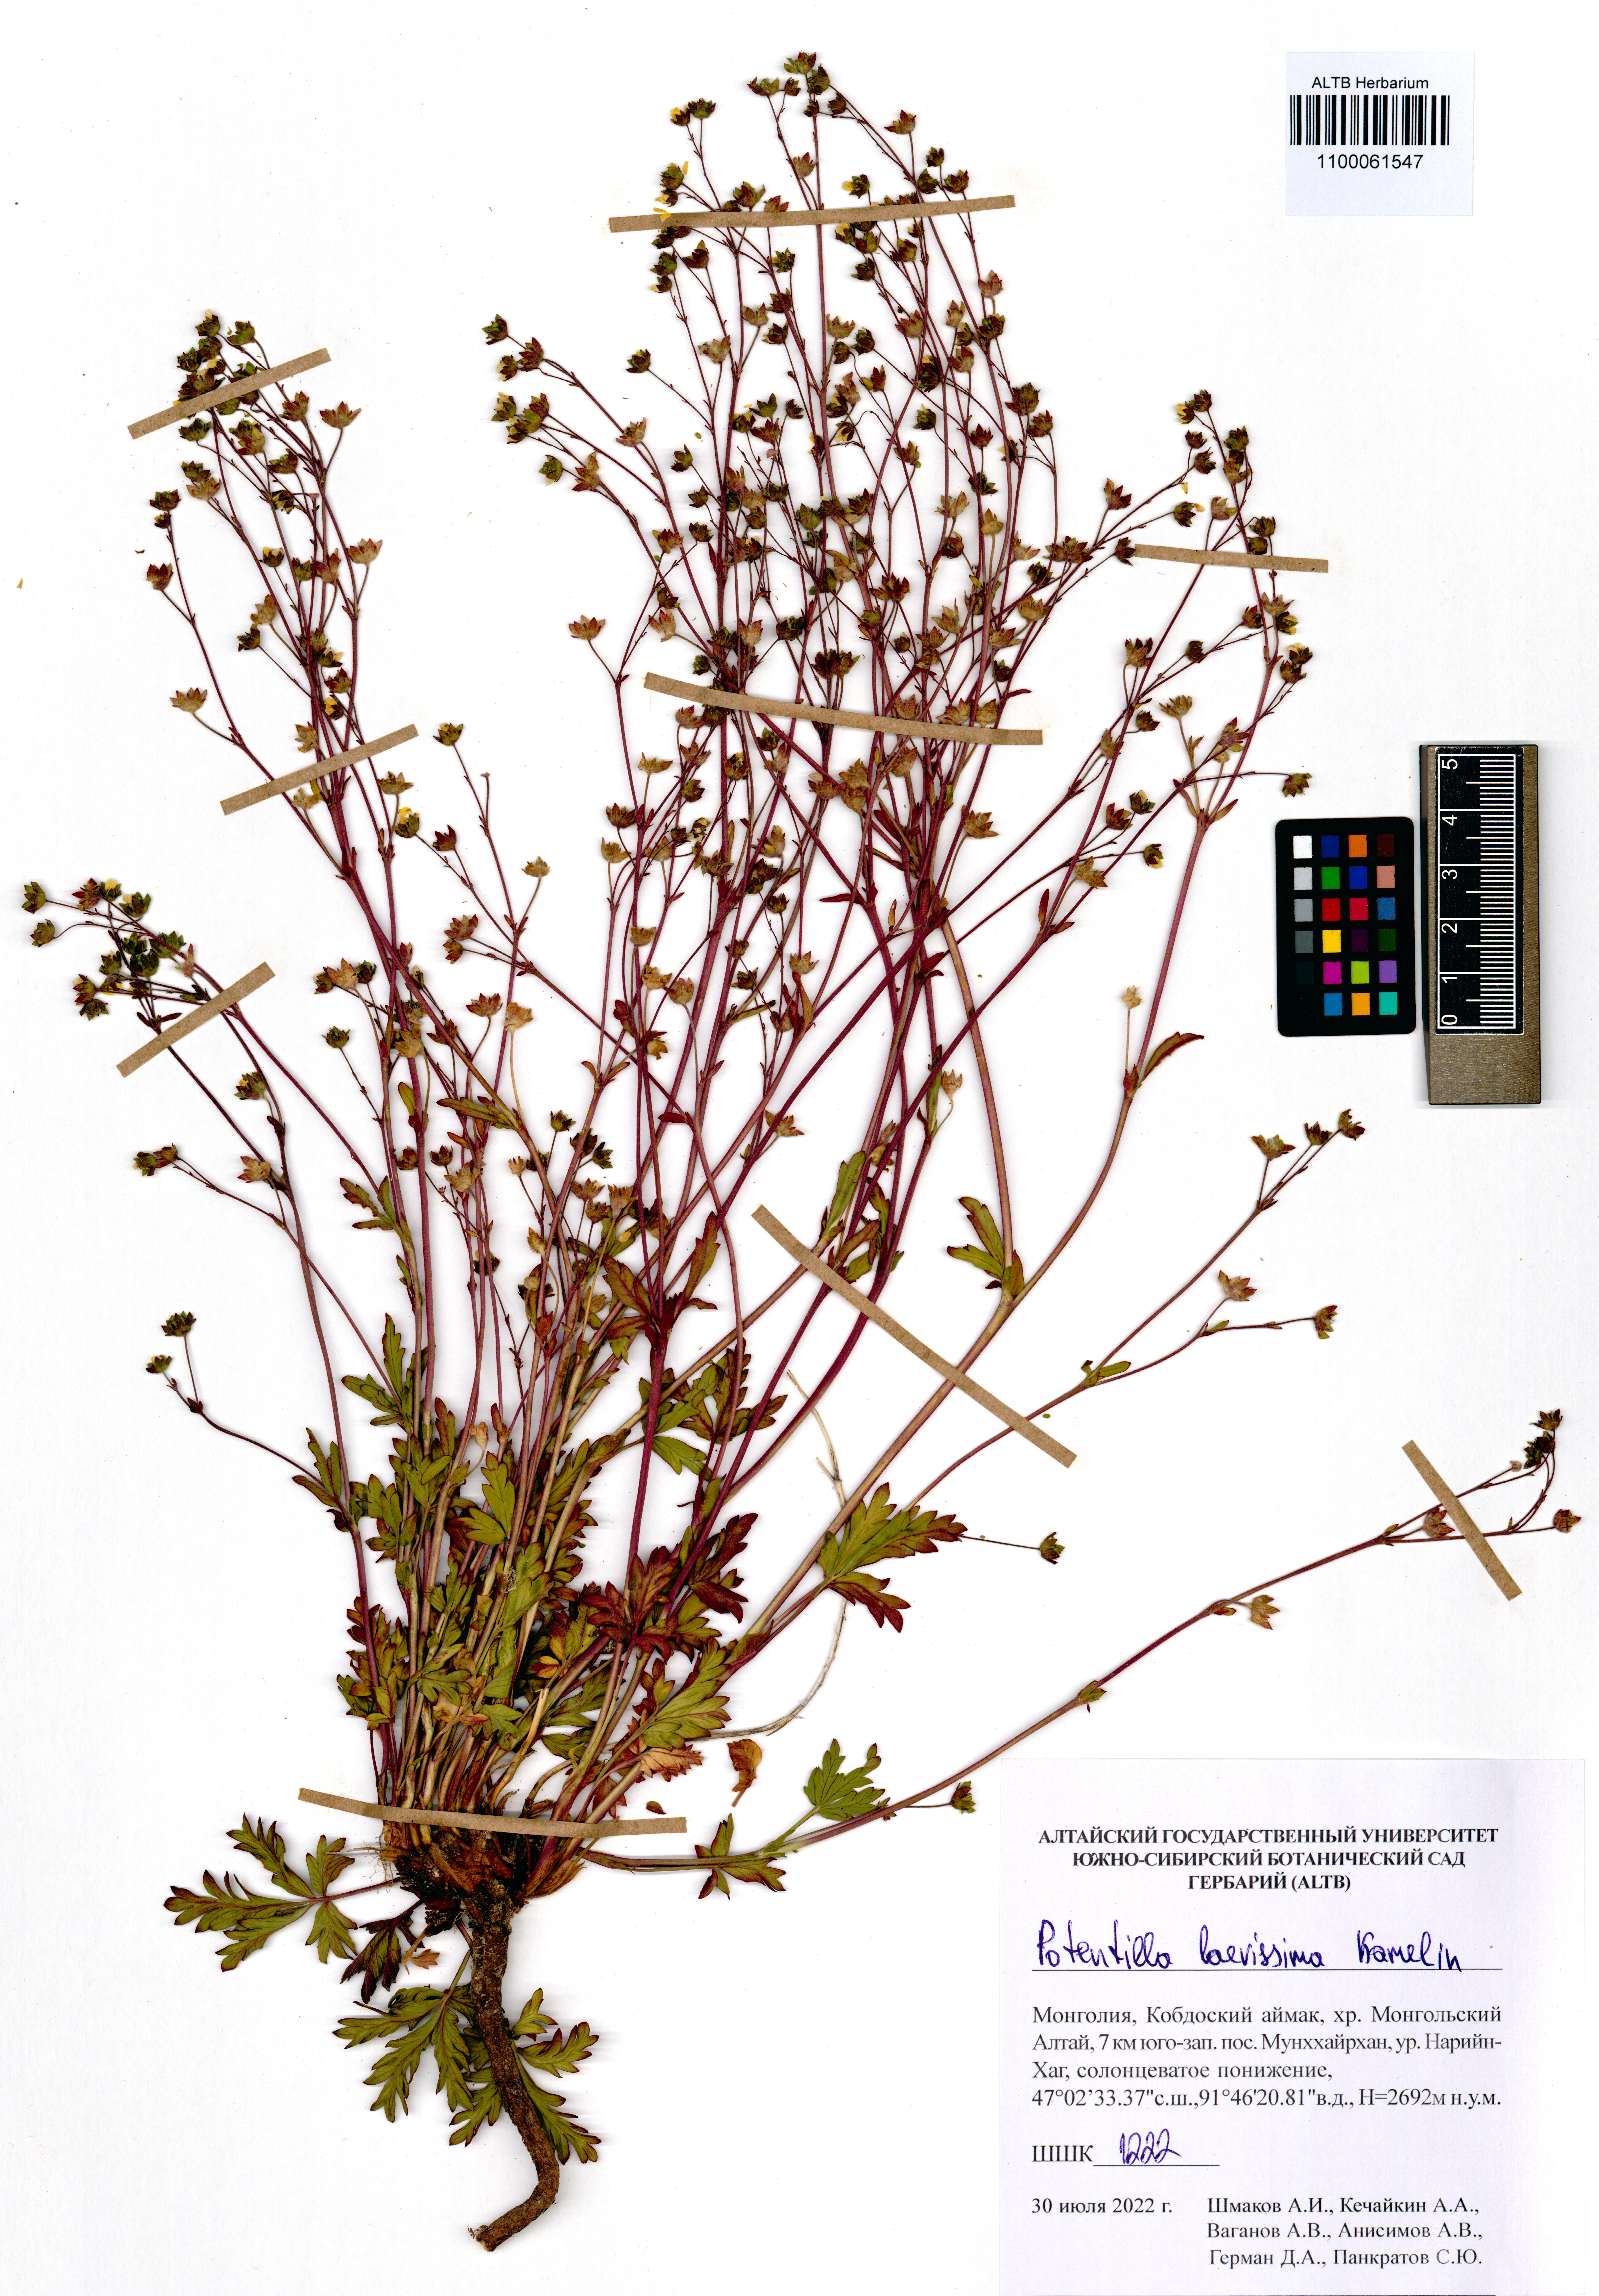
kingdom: Plantae
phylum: Tracheophyta
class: Magnoliopsida
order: Rosales
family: Rosaceae
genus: Potentilla
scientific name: Potentilla laevissima
